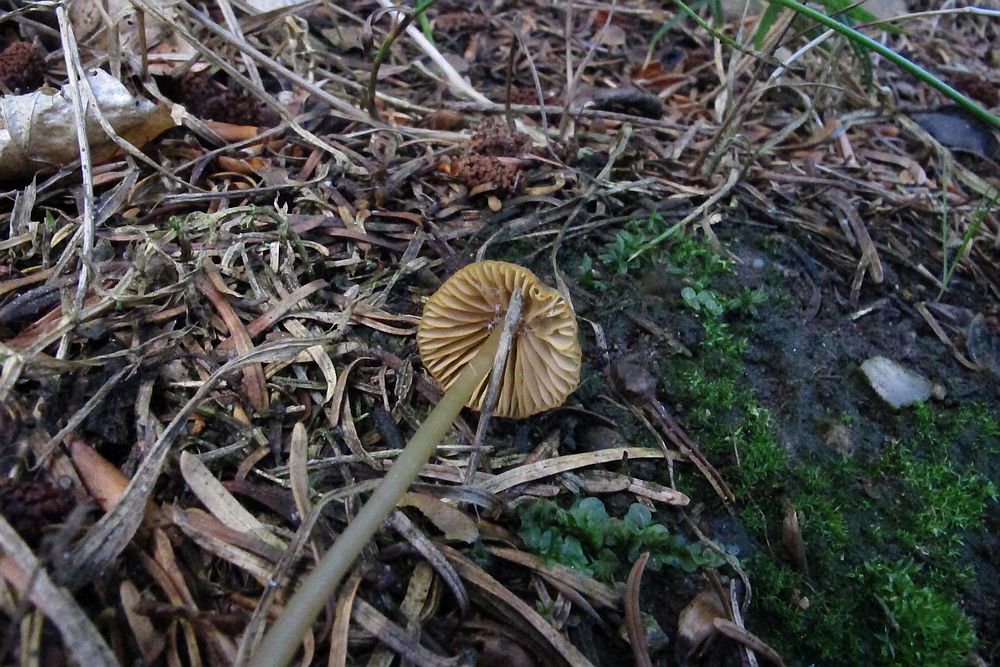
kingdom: Fungi
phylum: Basidiomycota
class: Agaricomycetes
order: Agaricales
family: Mycenaceae
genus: Mycena
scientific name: Mycena aurantiomarginata
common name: orangeægget huesvamp
